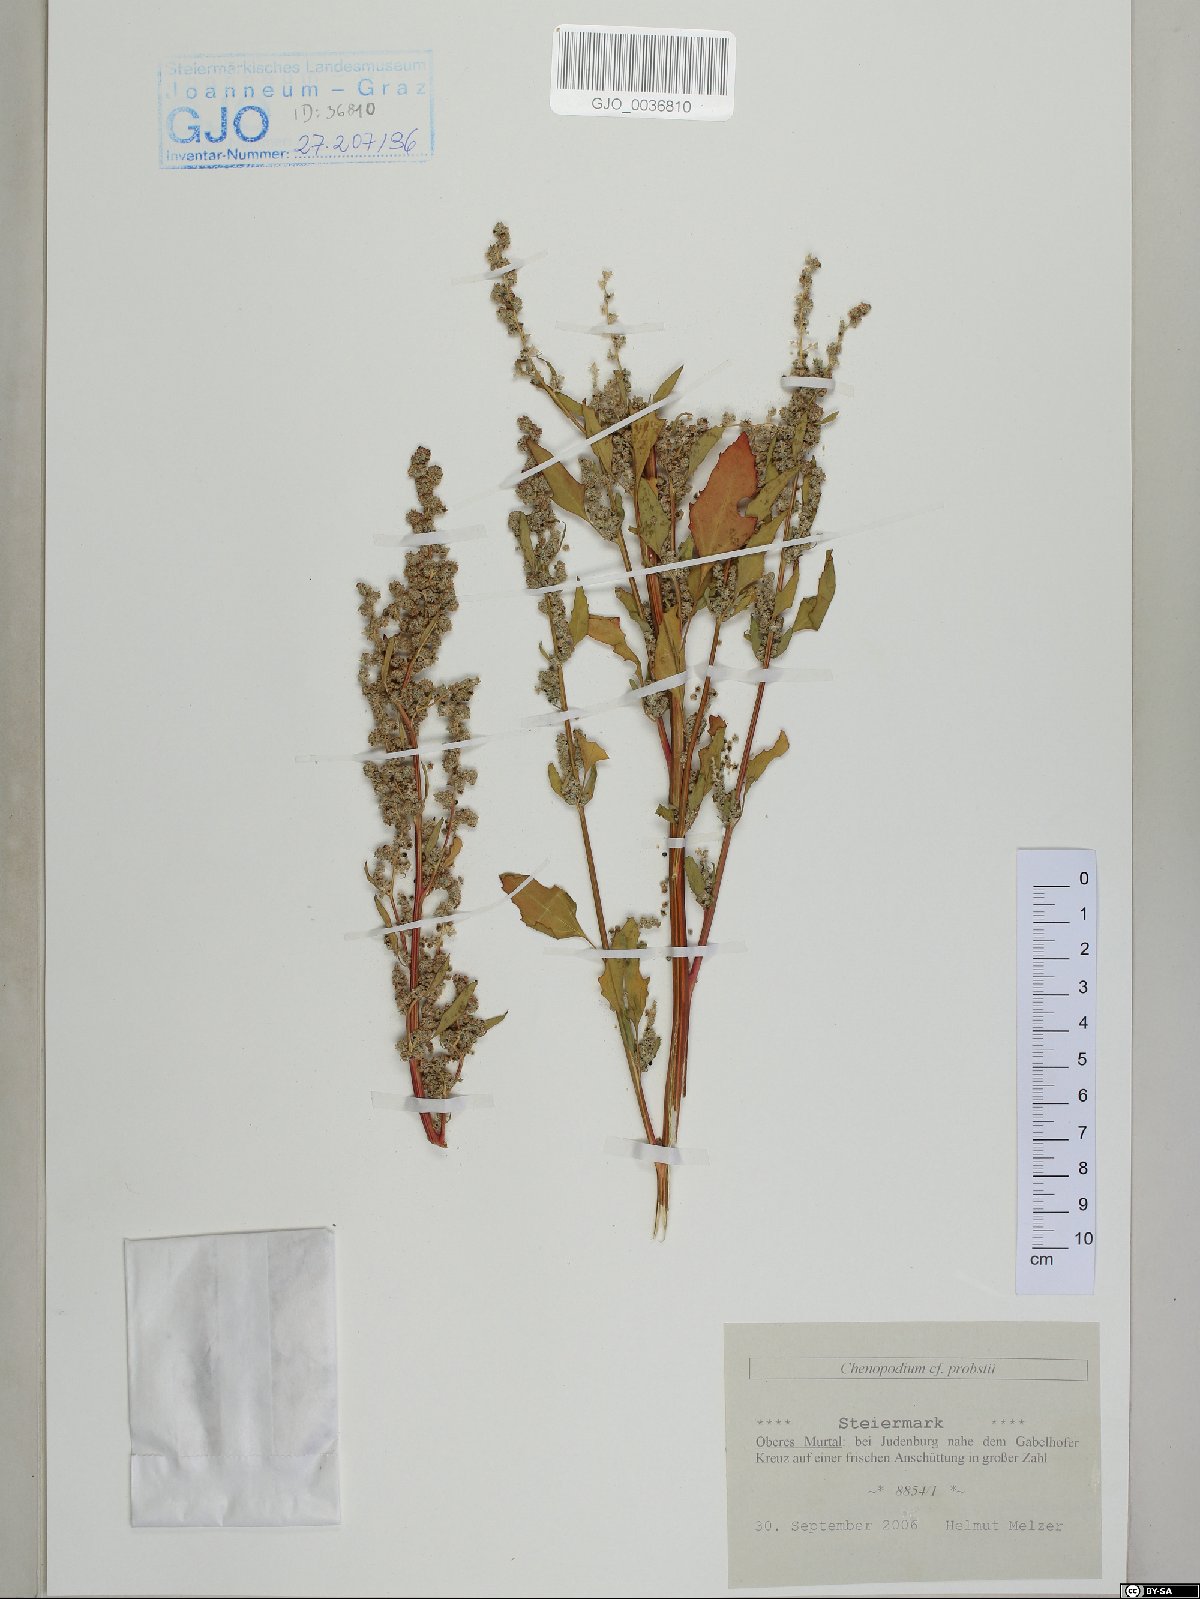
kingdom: Plantae
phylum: Tracheophyta
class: Magnoliopsida
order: Caryophyllales
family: Amaranthaceae
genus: Chenopodium
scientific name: Chenopodium probstii
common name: Probst's goosefoot
